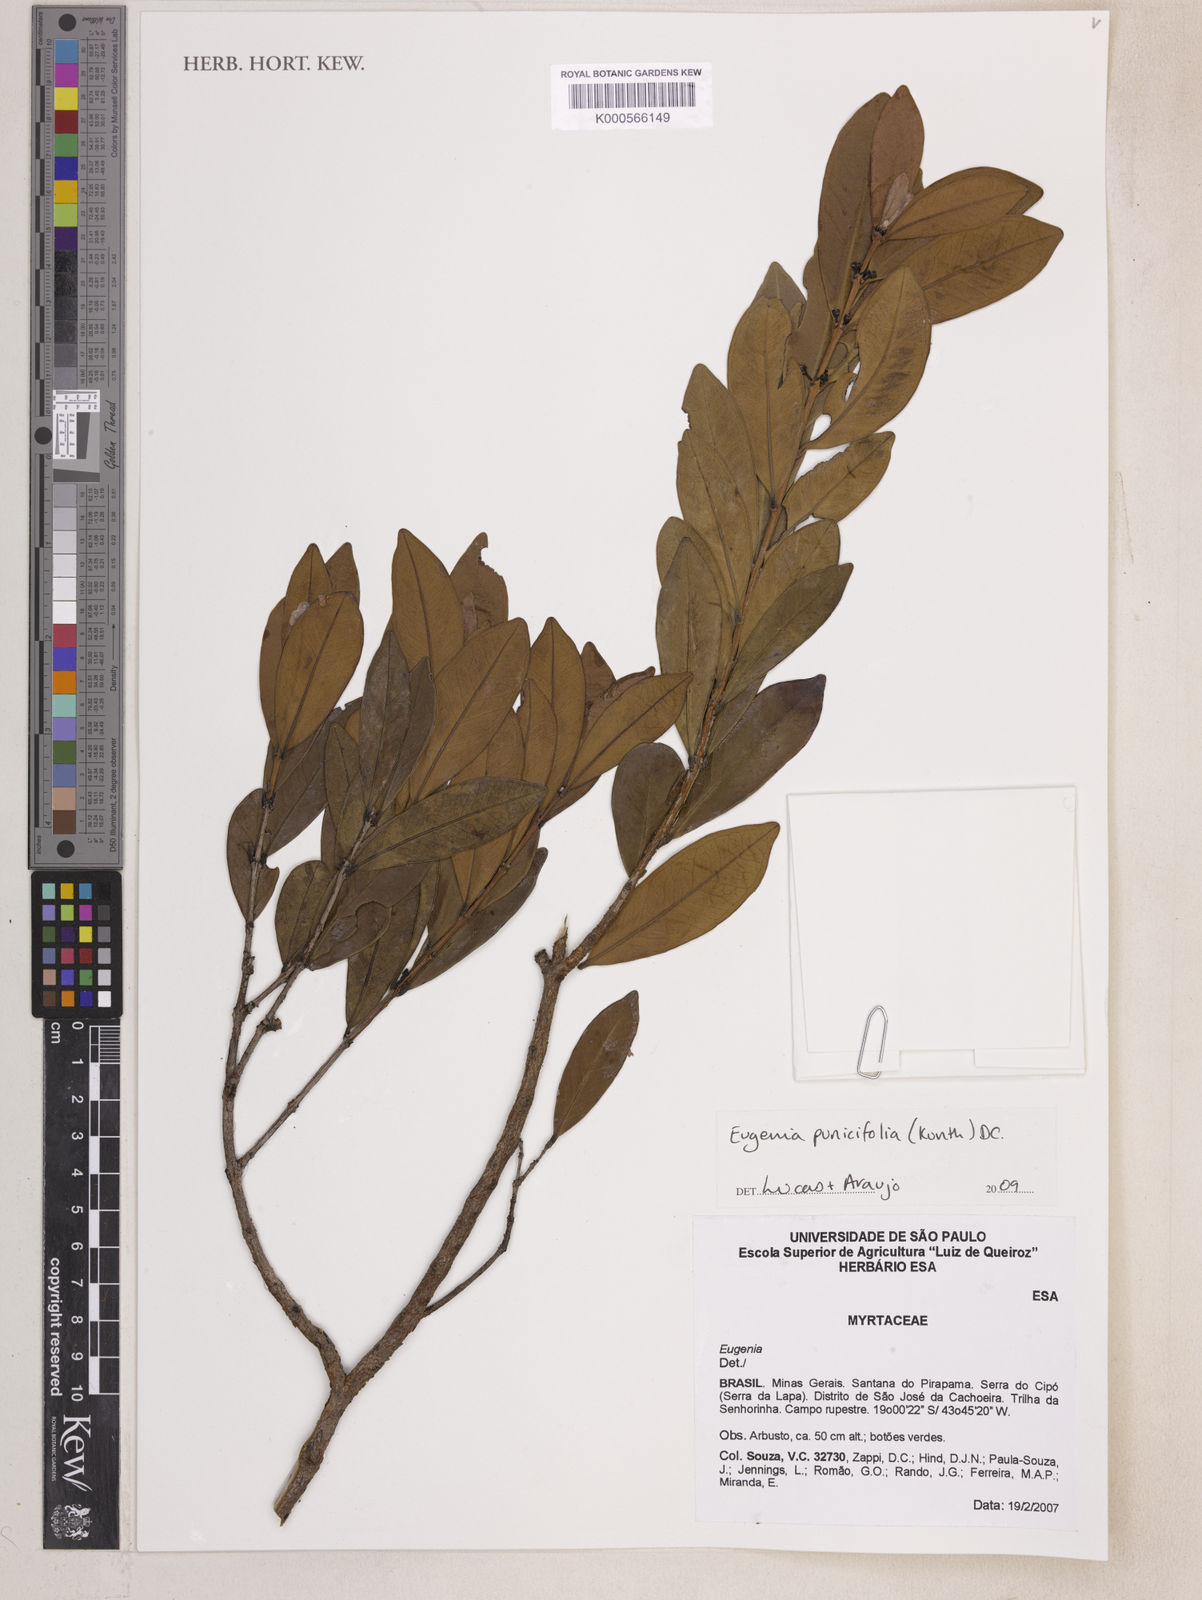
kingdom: Plantae
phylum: Tracheophyta
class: Magnoliopsida
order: Myrtales
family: Myrtaceae
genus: Eugenia
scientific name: Eugenia punicifolia
